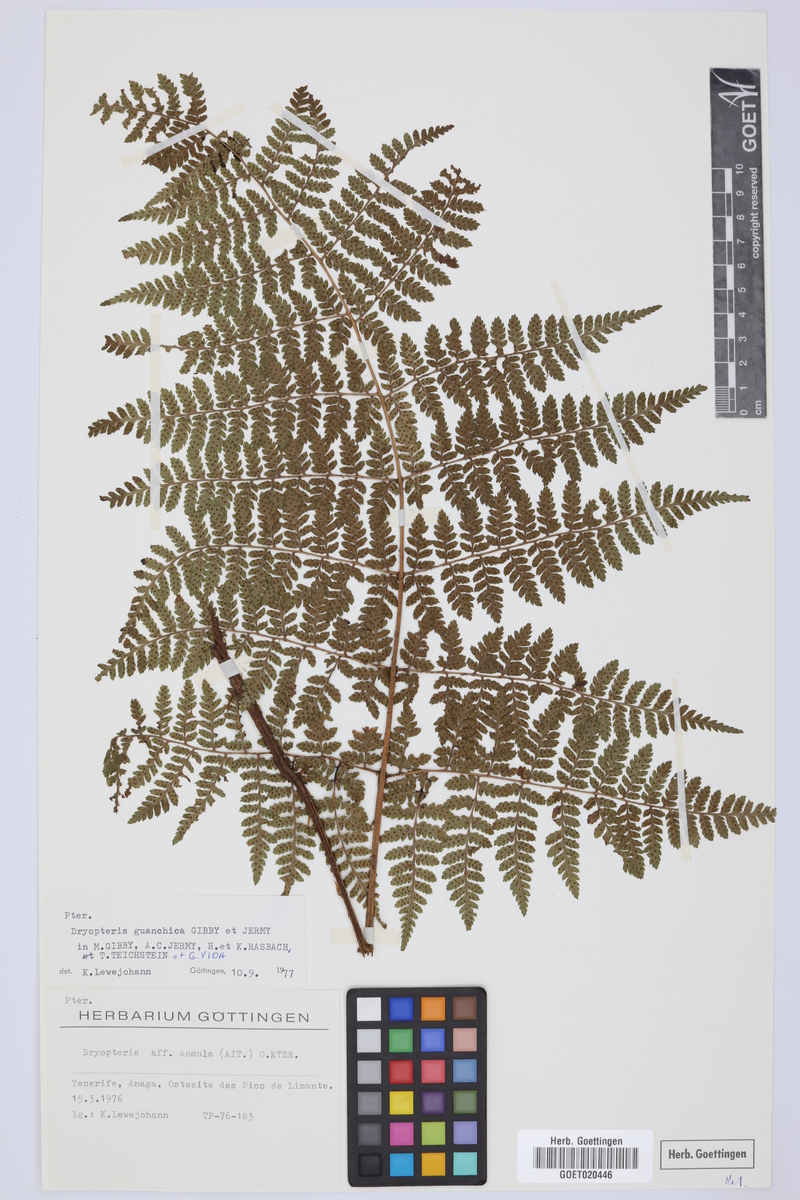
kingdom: Plantae
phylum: Tracheophyta
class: Polypodiopsida
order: Polypodiales
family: Dryopteridaceae
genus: Dryopteris
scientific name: Dryopteris guanchica
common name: Guanche woodfern
